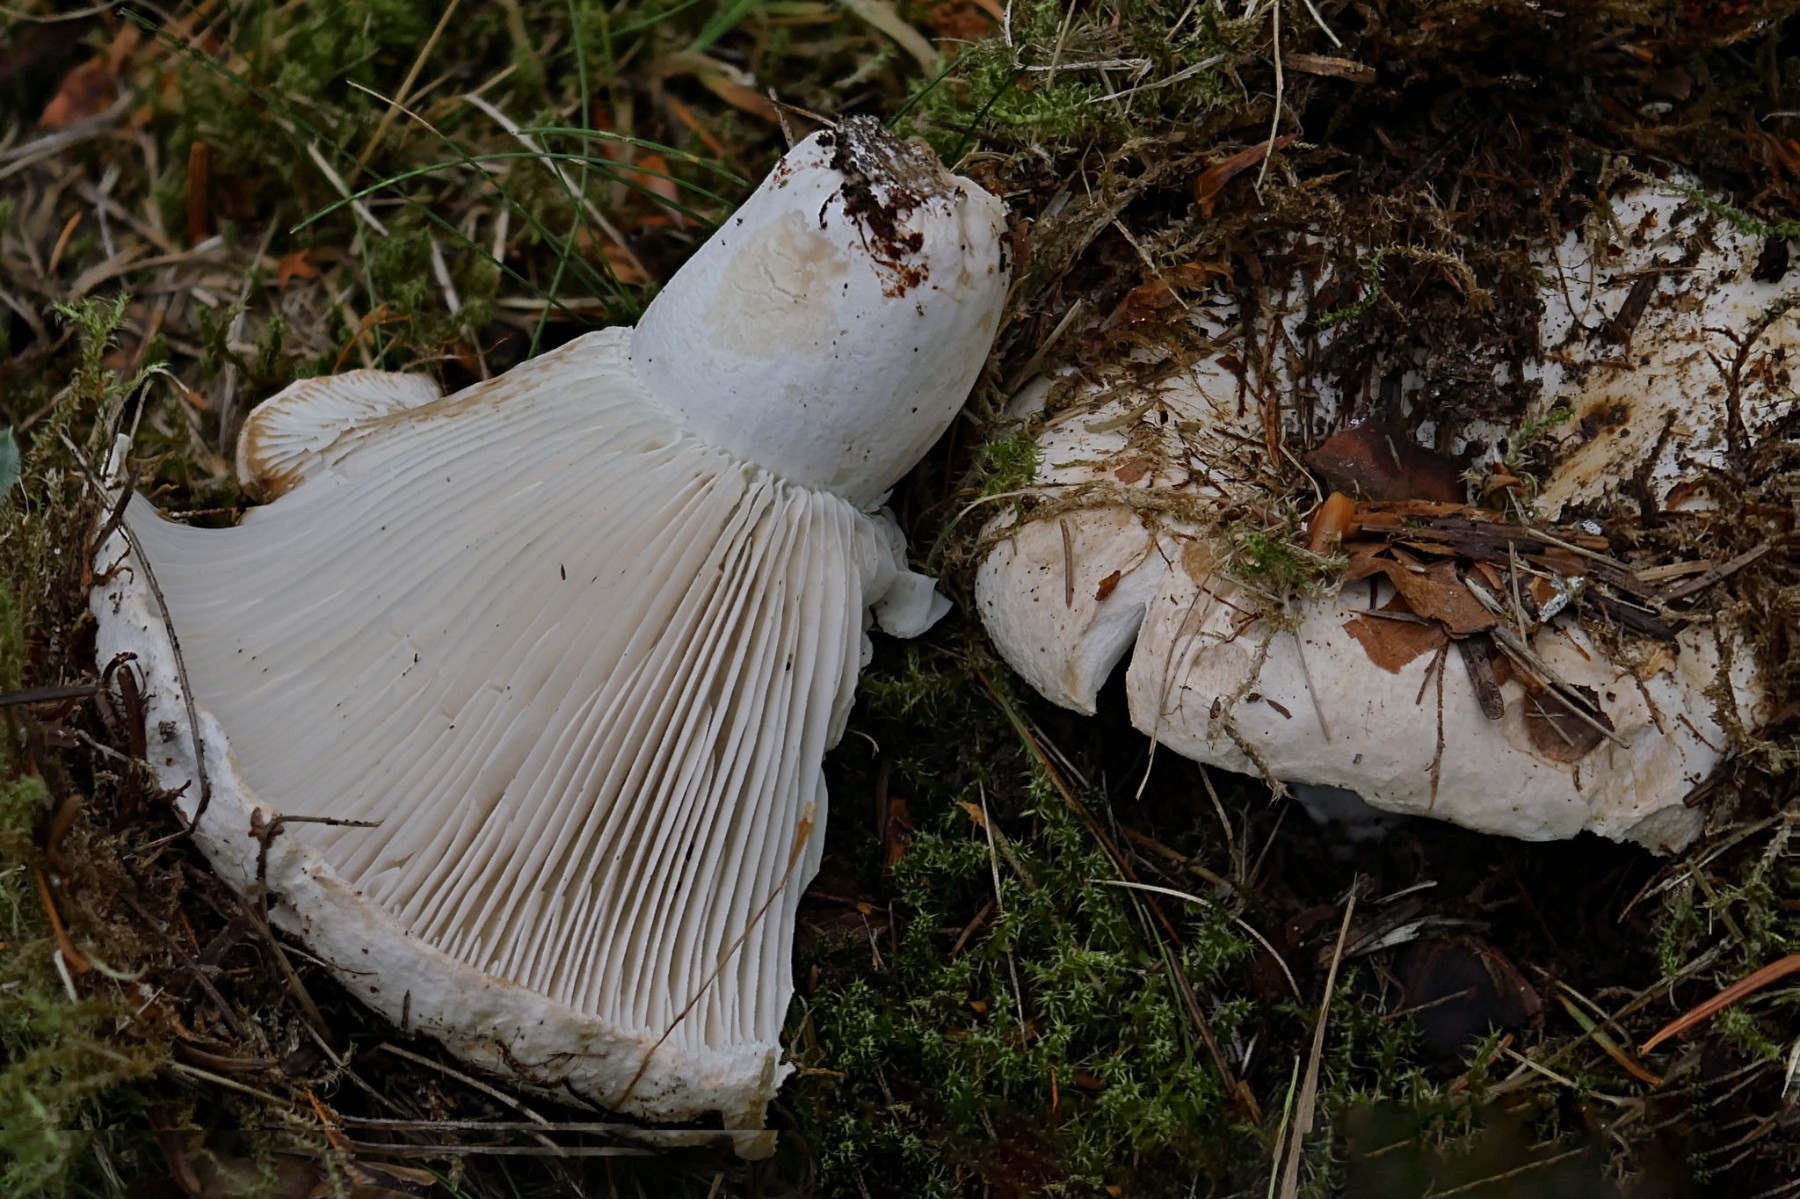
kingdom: Fungi
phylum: Basidiomycota
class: Agaricomycetes
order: Russulales
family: Russulaceae
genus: Russula
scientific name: Russula delica
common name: almindelig tragt-skørhat
